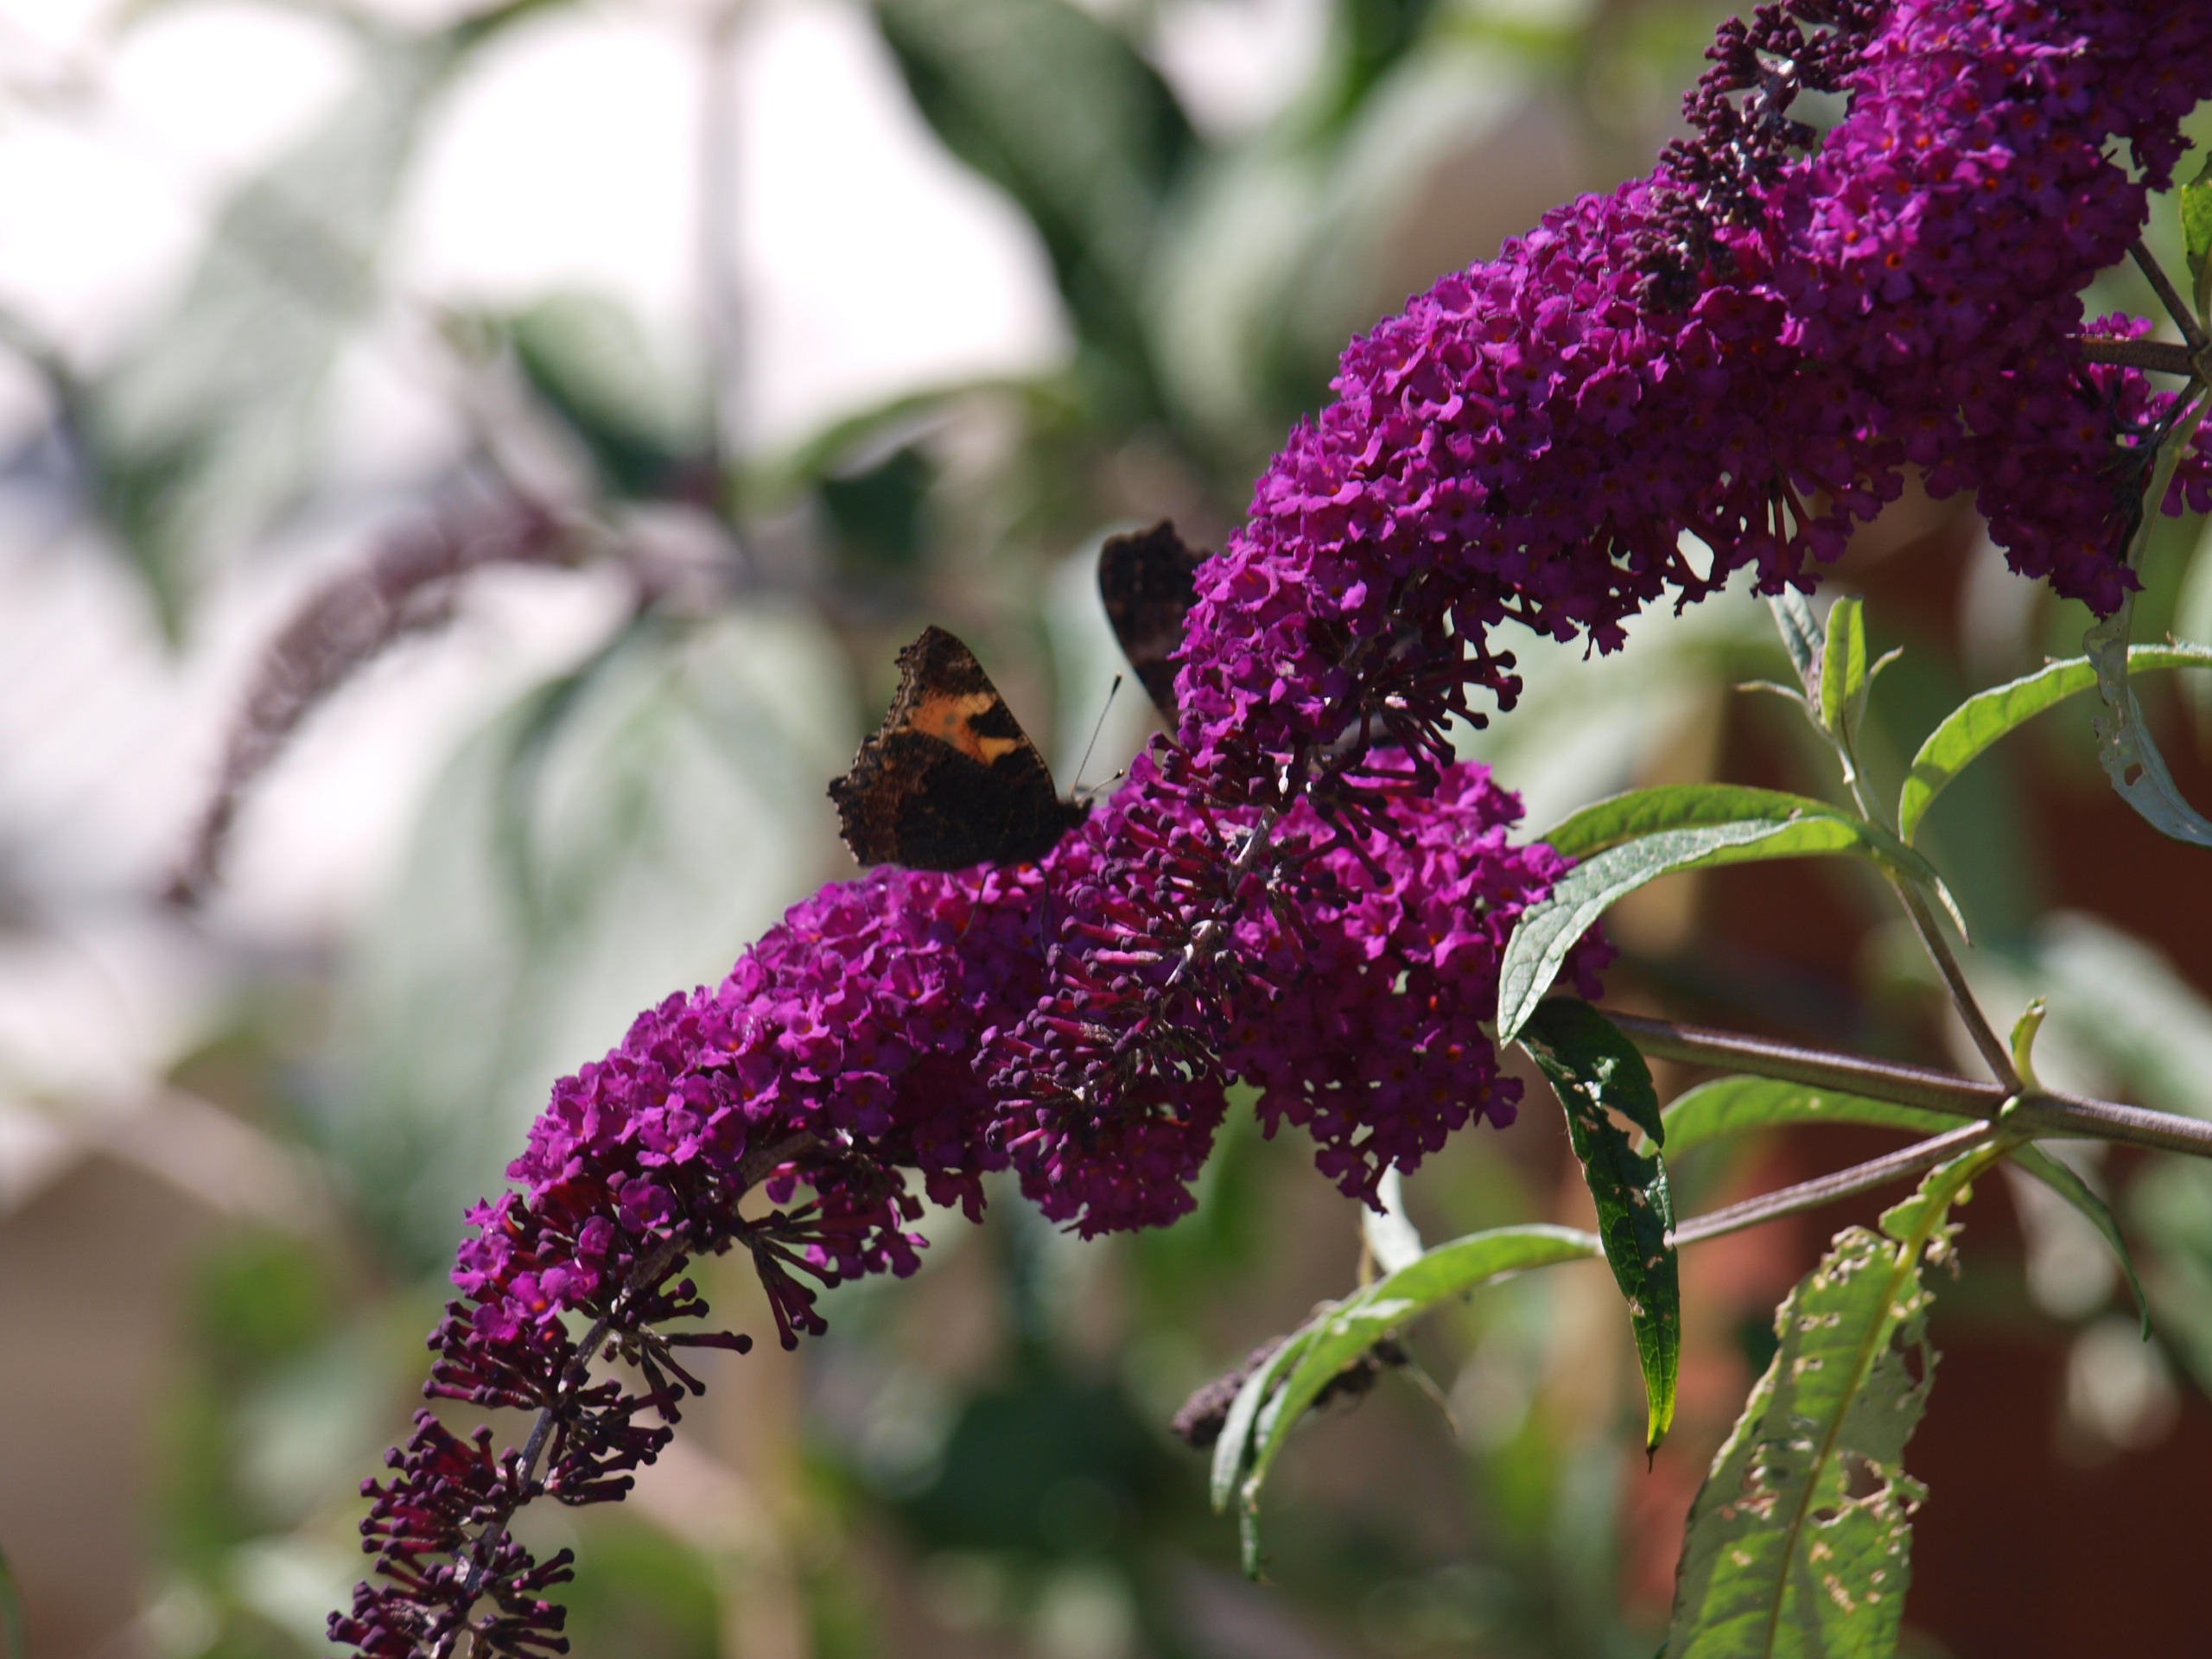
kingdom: Animalia
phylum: Arthropoda
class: Insecta
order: Lepidoptera
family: Nymphalidae
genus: Aglais
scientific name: Aglais urticae
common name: Nældens takvinge
